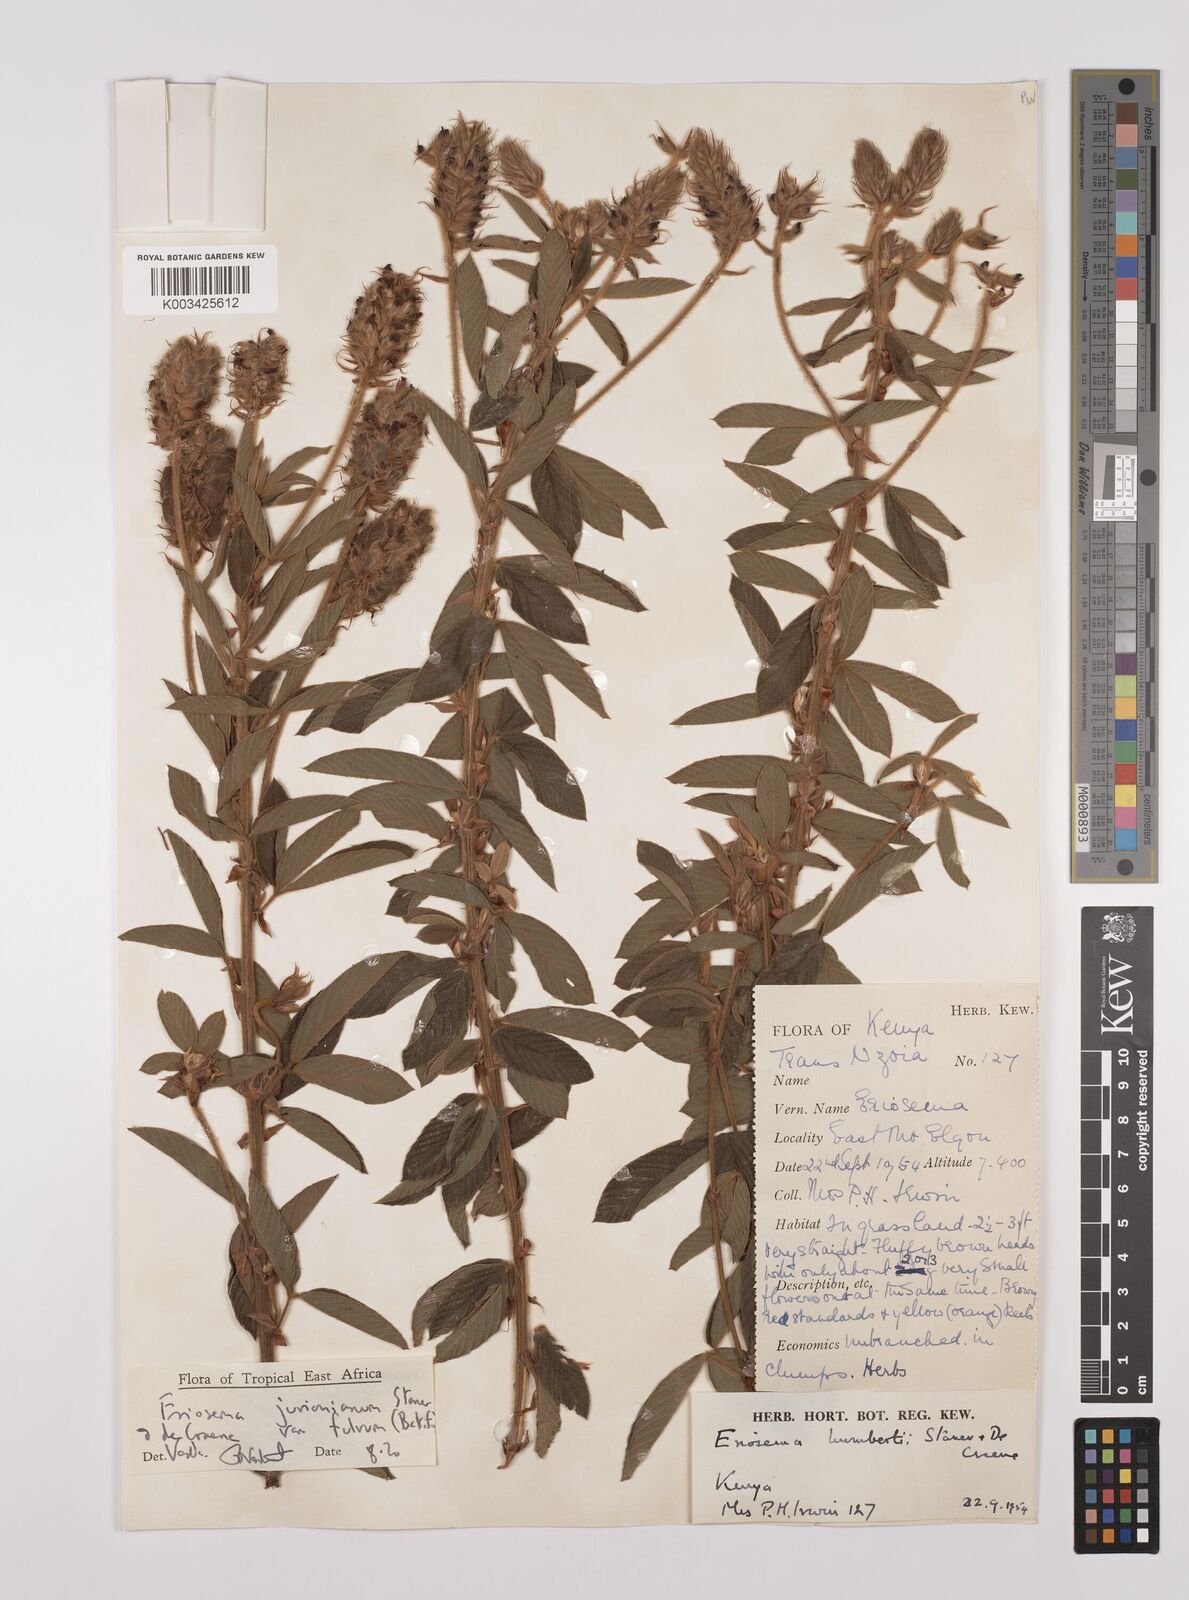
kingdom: Plantae
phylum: Tracheophyta
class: Magnoliopsida
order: Fabales
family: Fabaceae
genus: Eriosema
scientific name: Eriosema jurionianum
